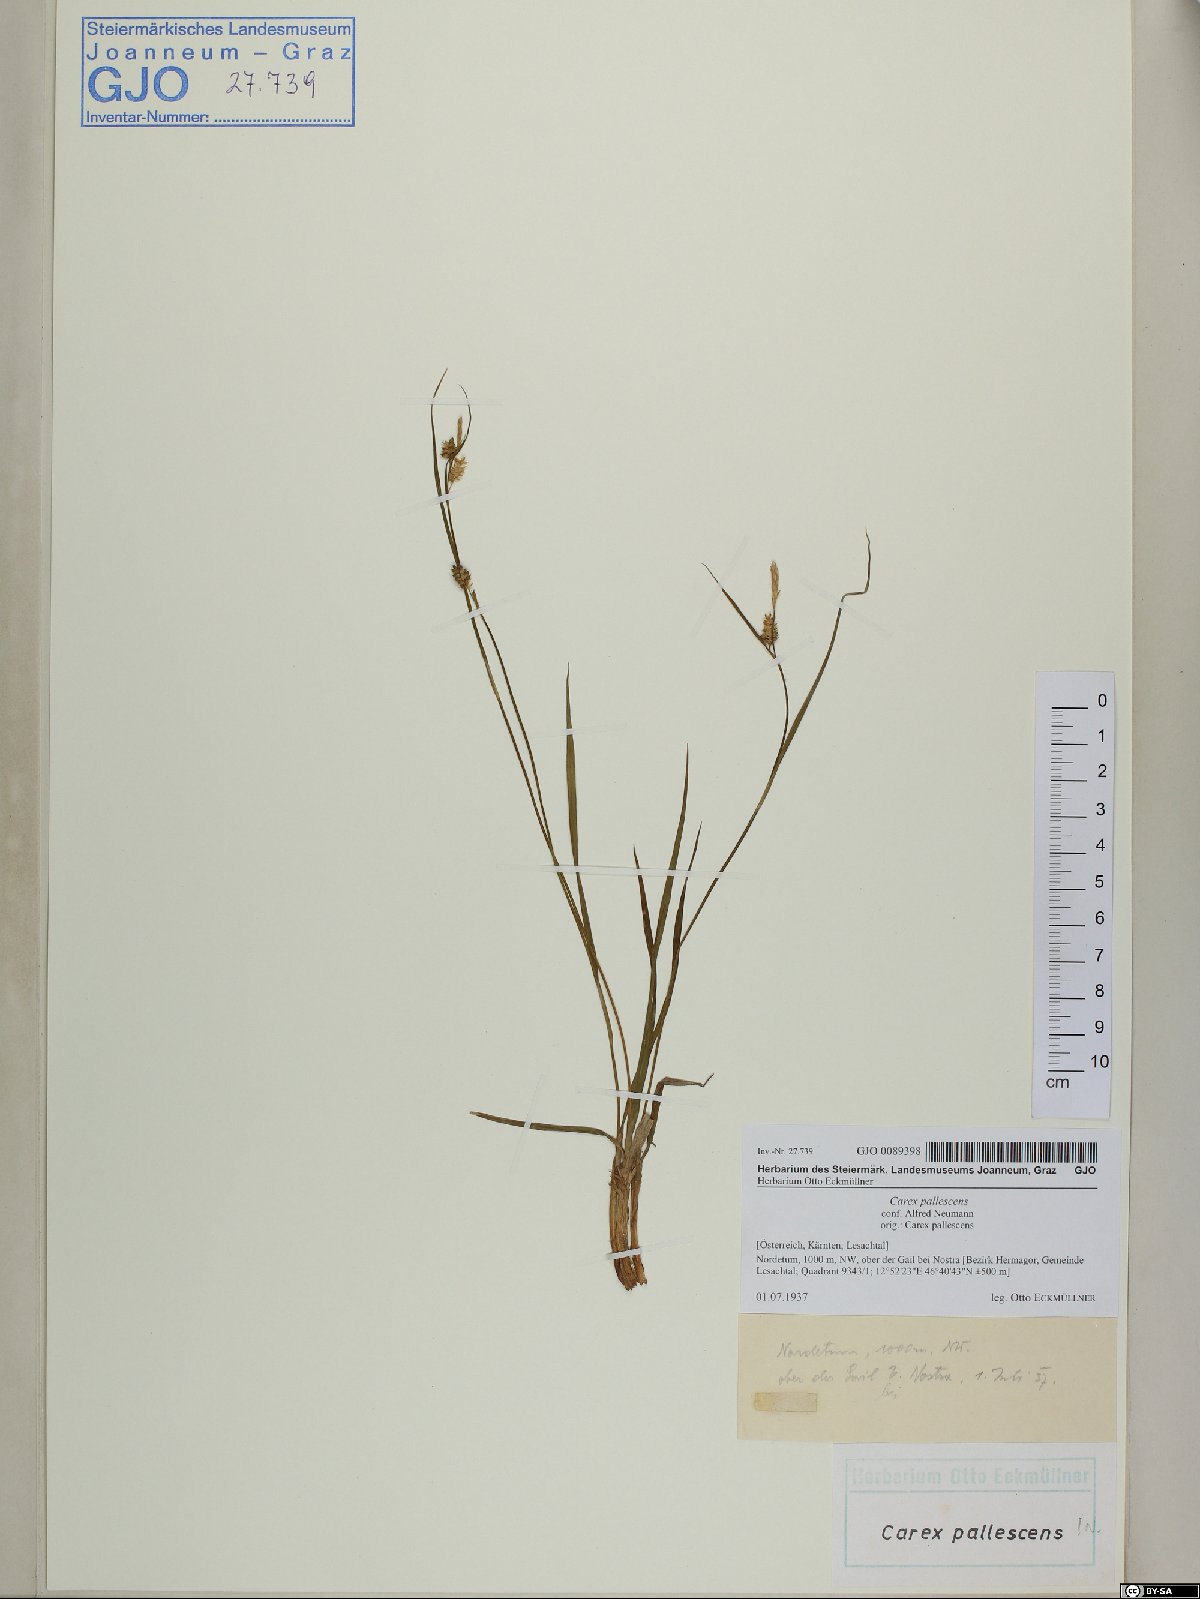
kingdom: Plantae
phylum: Tracheophyta
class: Liliopsida
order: Poales
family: Cyperaceae
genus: Carex
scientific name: Carex pallescens
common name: Pale sedge
